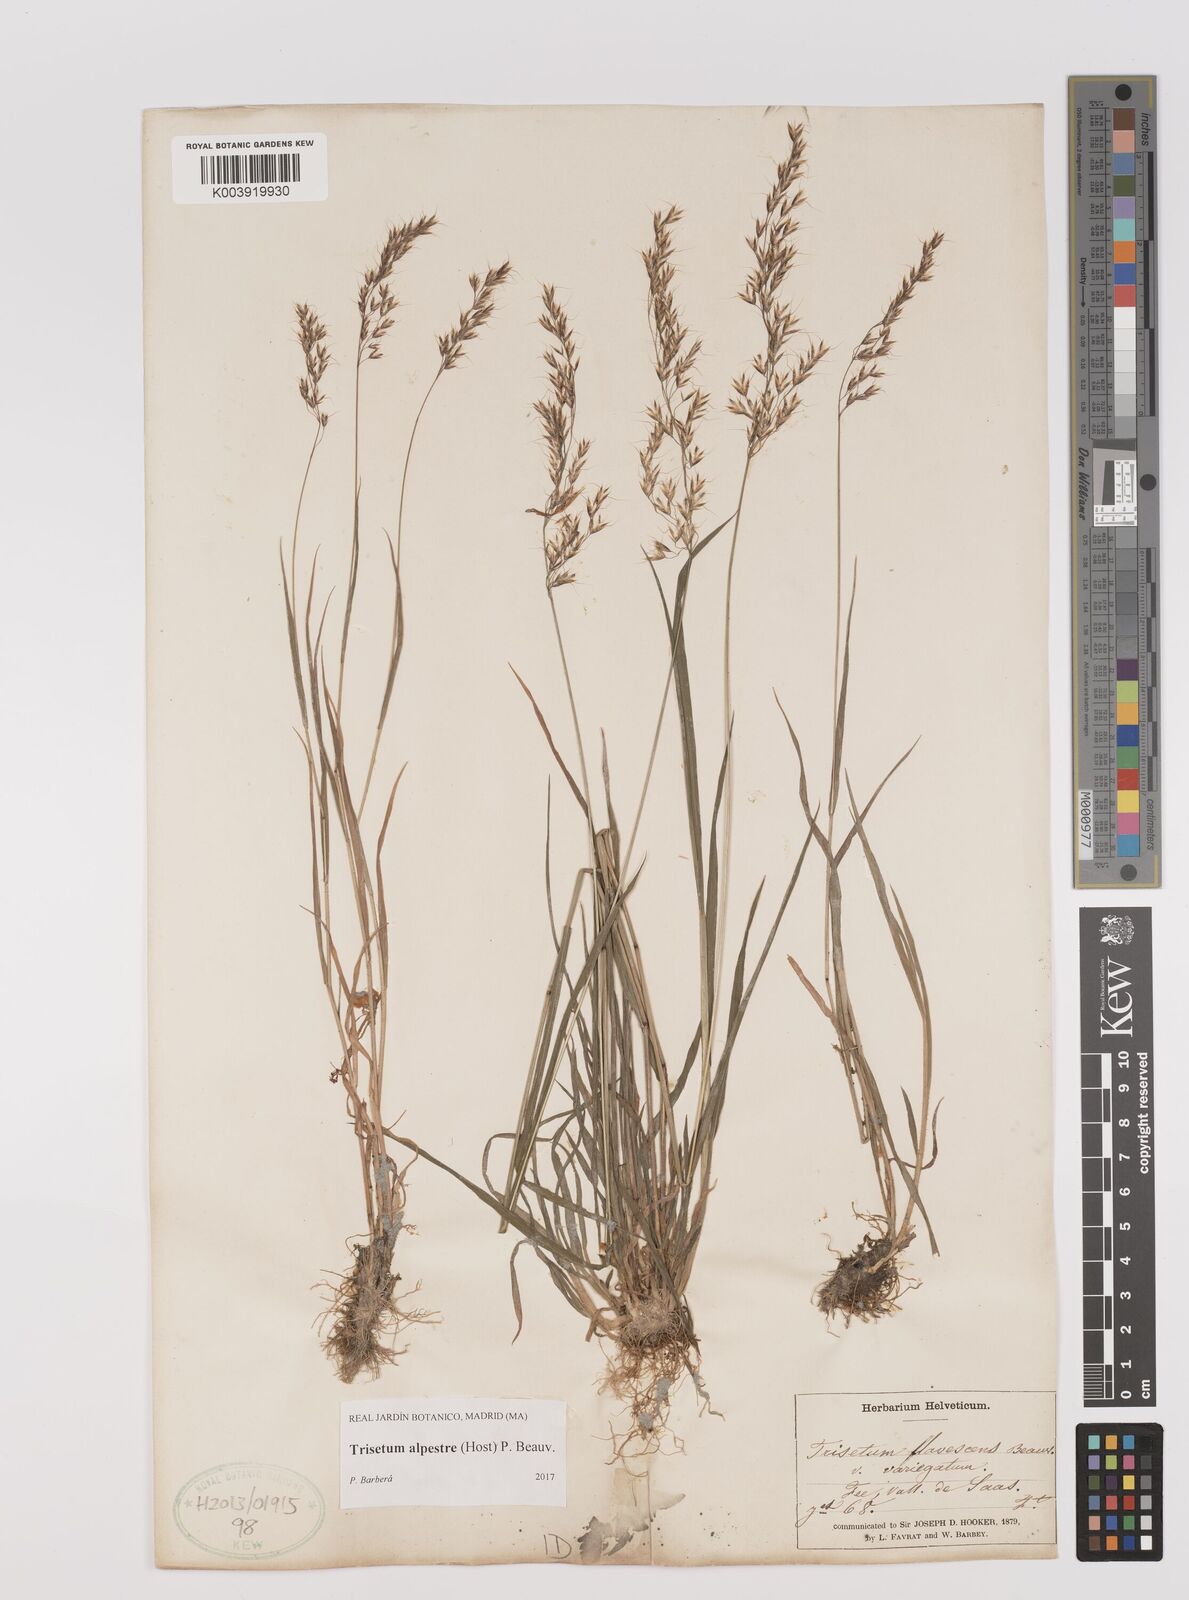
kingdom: Plantae
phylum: Tracheophyta
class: Liliopsida
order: Poales
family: Poaceae
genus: Trisetum
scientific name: Trisetum alpestre
